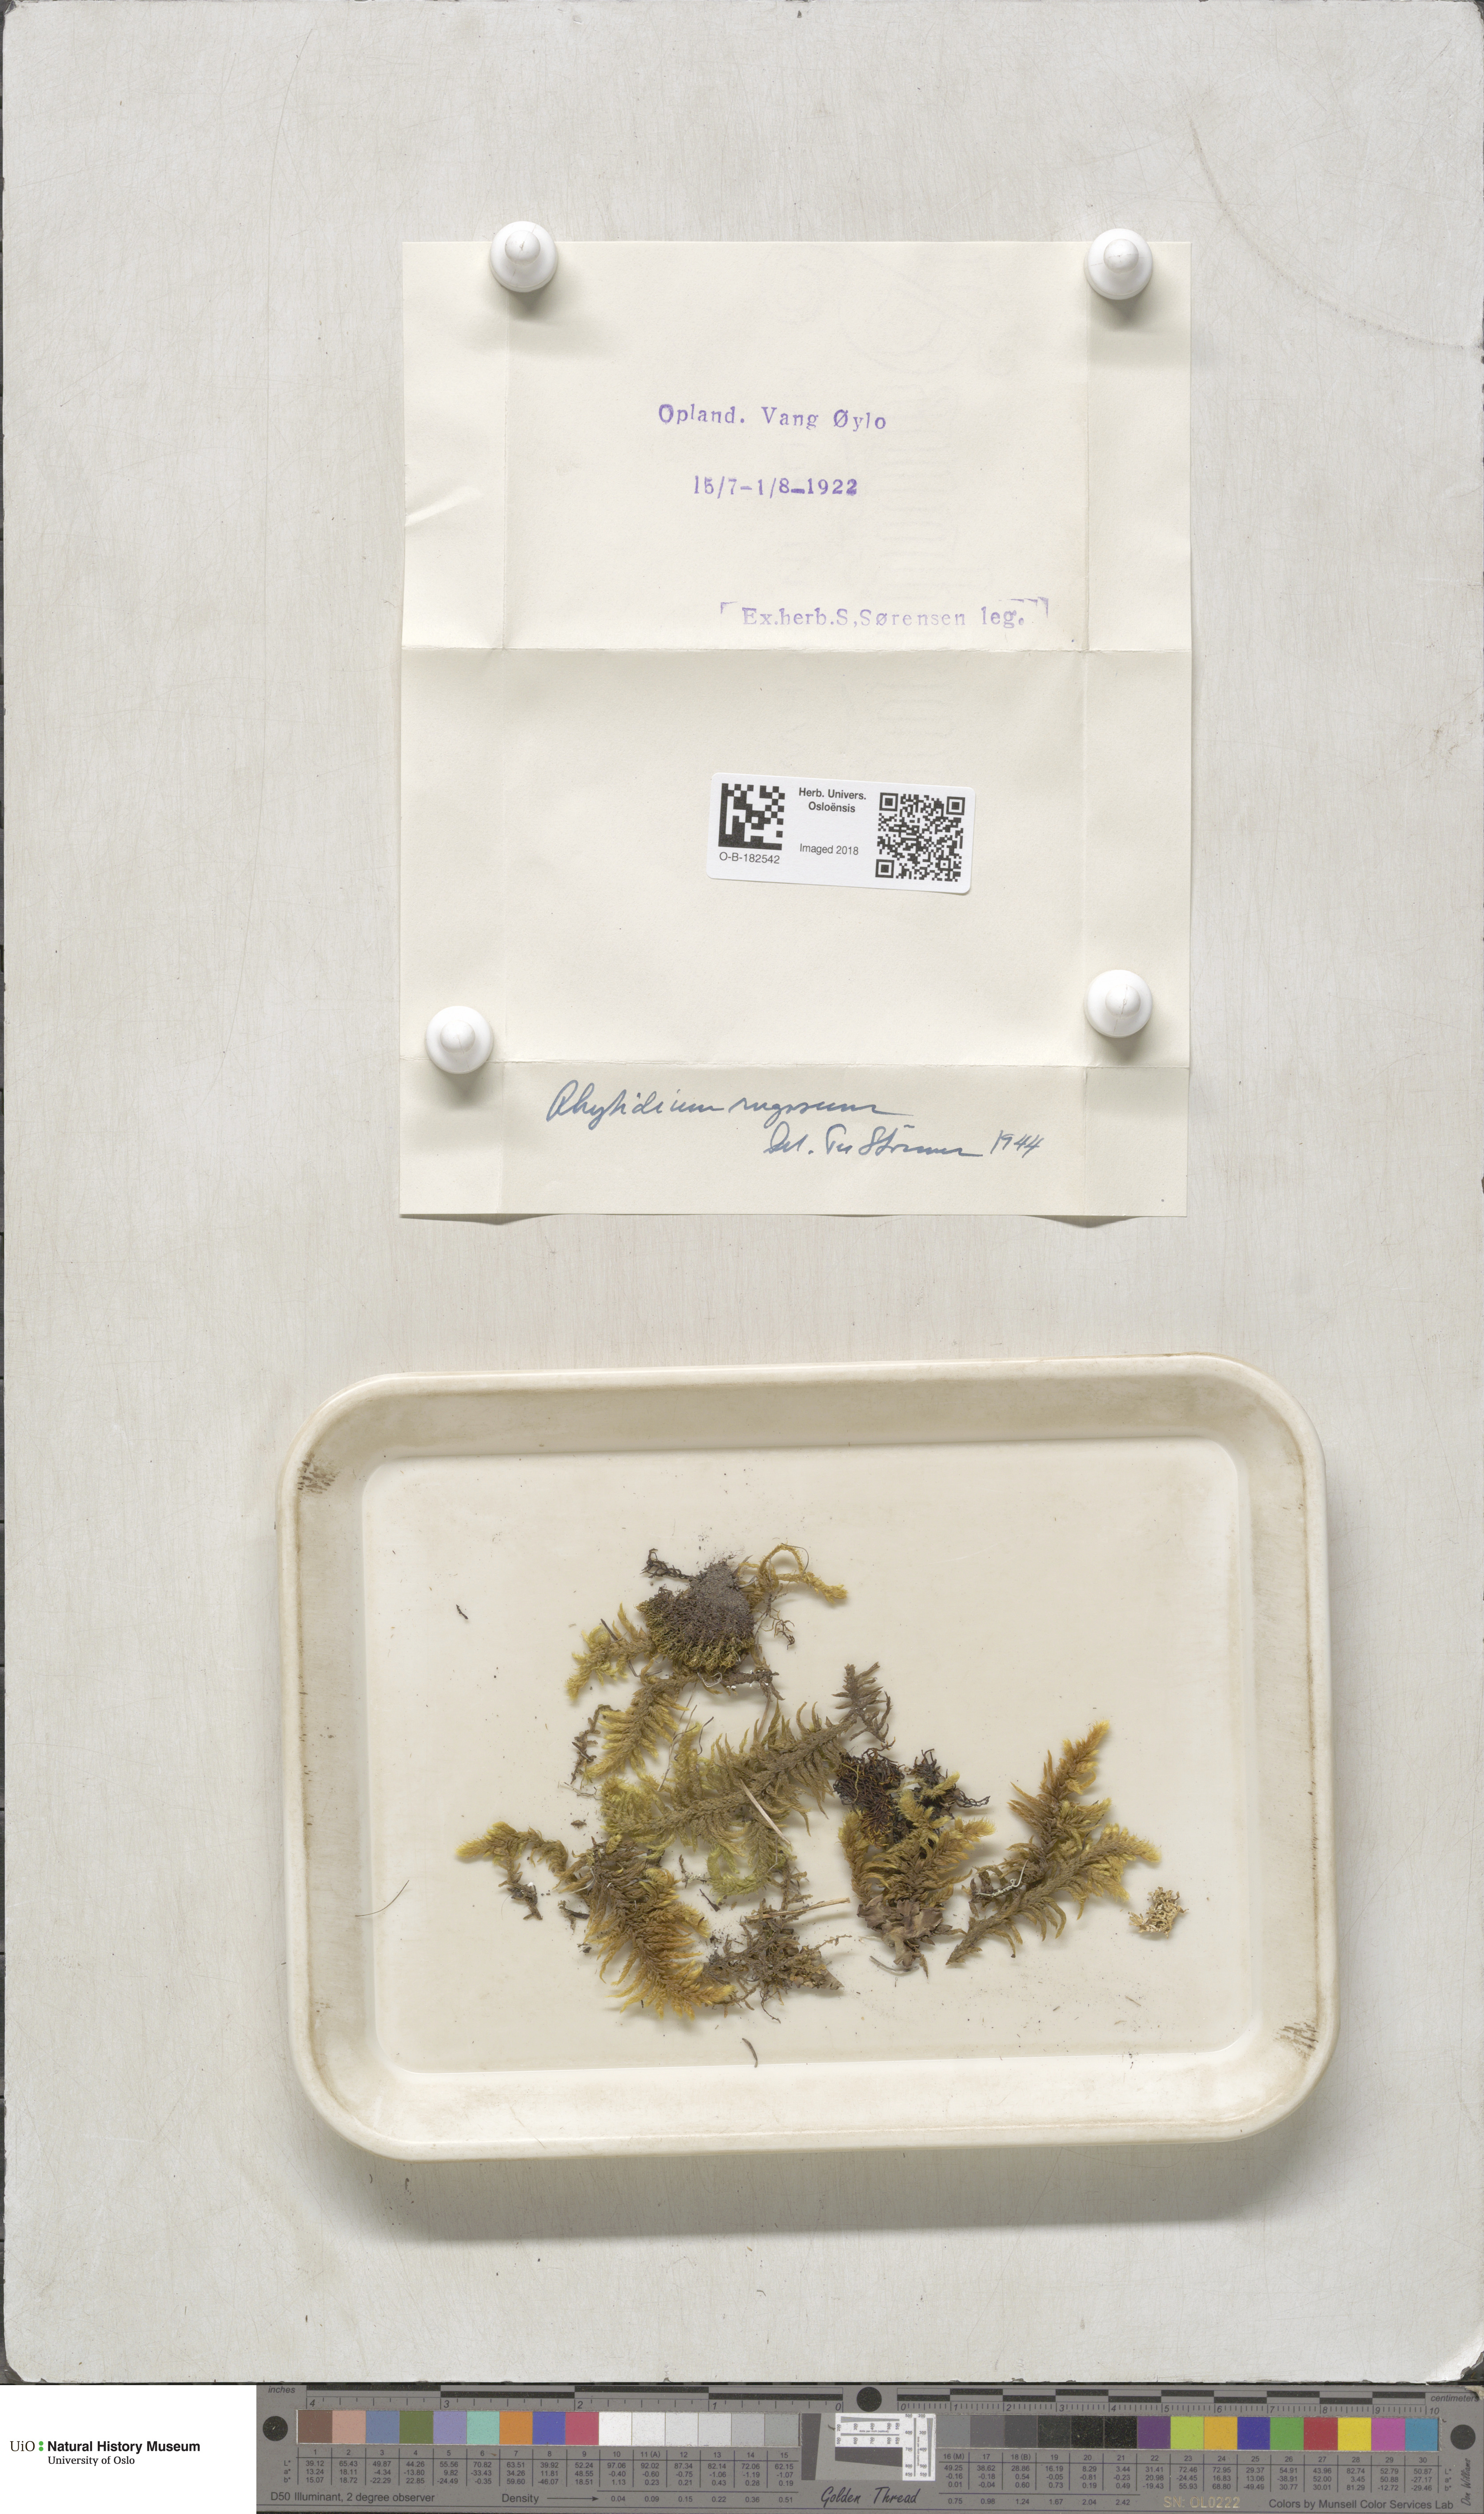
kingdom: Plantae
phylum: Bryophyta
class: Bryopsida
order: Hypnales
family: Rhytidiaceae
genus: Rhytidium
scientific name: Rhytidium rugosum
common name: Wrinkle-leaved moss
